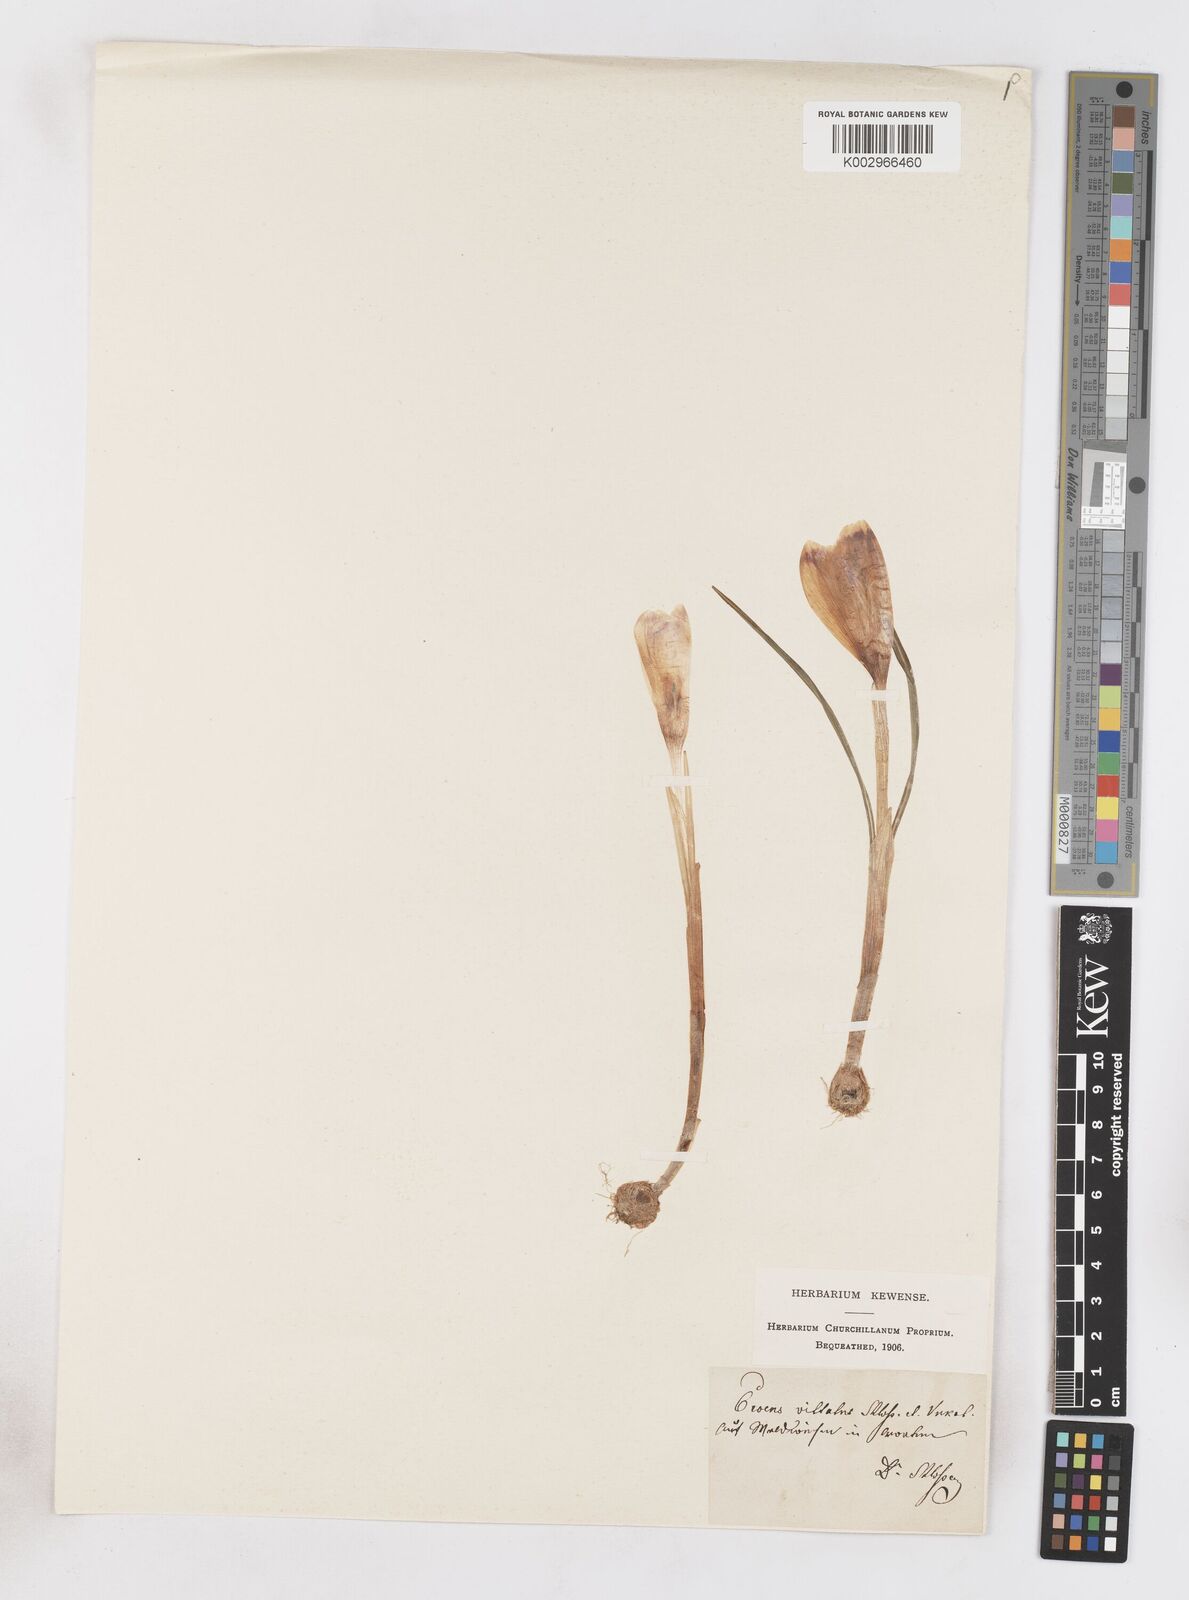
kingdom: Plantae
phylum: Tracheophyta
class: Liliopsida
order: Asparagales
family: Iridaceae
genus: Crocus
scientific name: Crocus vernus
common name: Spring crocus
